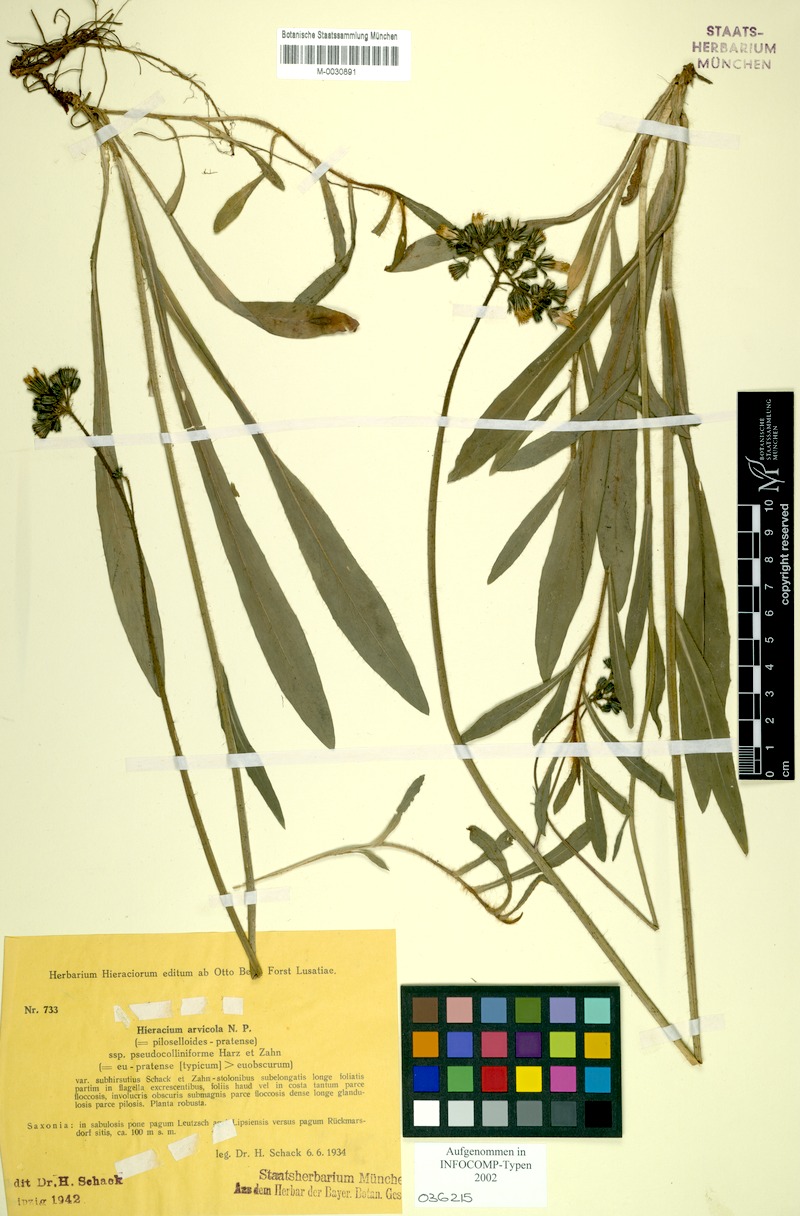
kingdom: Plantae
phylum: Tracheophyta
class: Magnoliopsida
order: Asterales
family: Asteraceae
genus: Pilosella
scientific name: Pilosella erythrochrista
